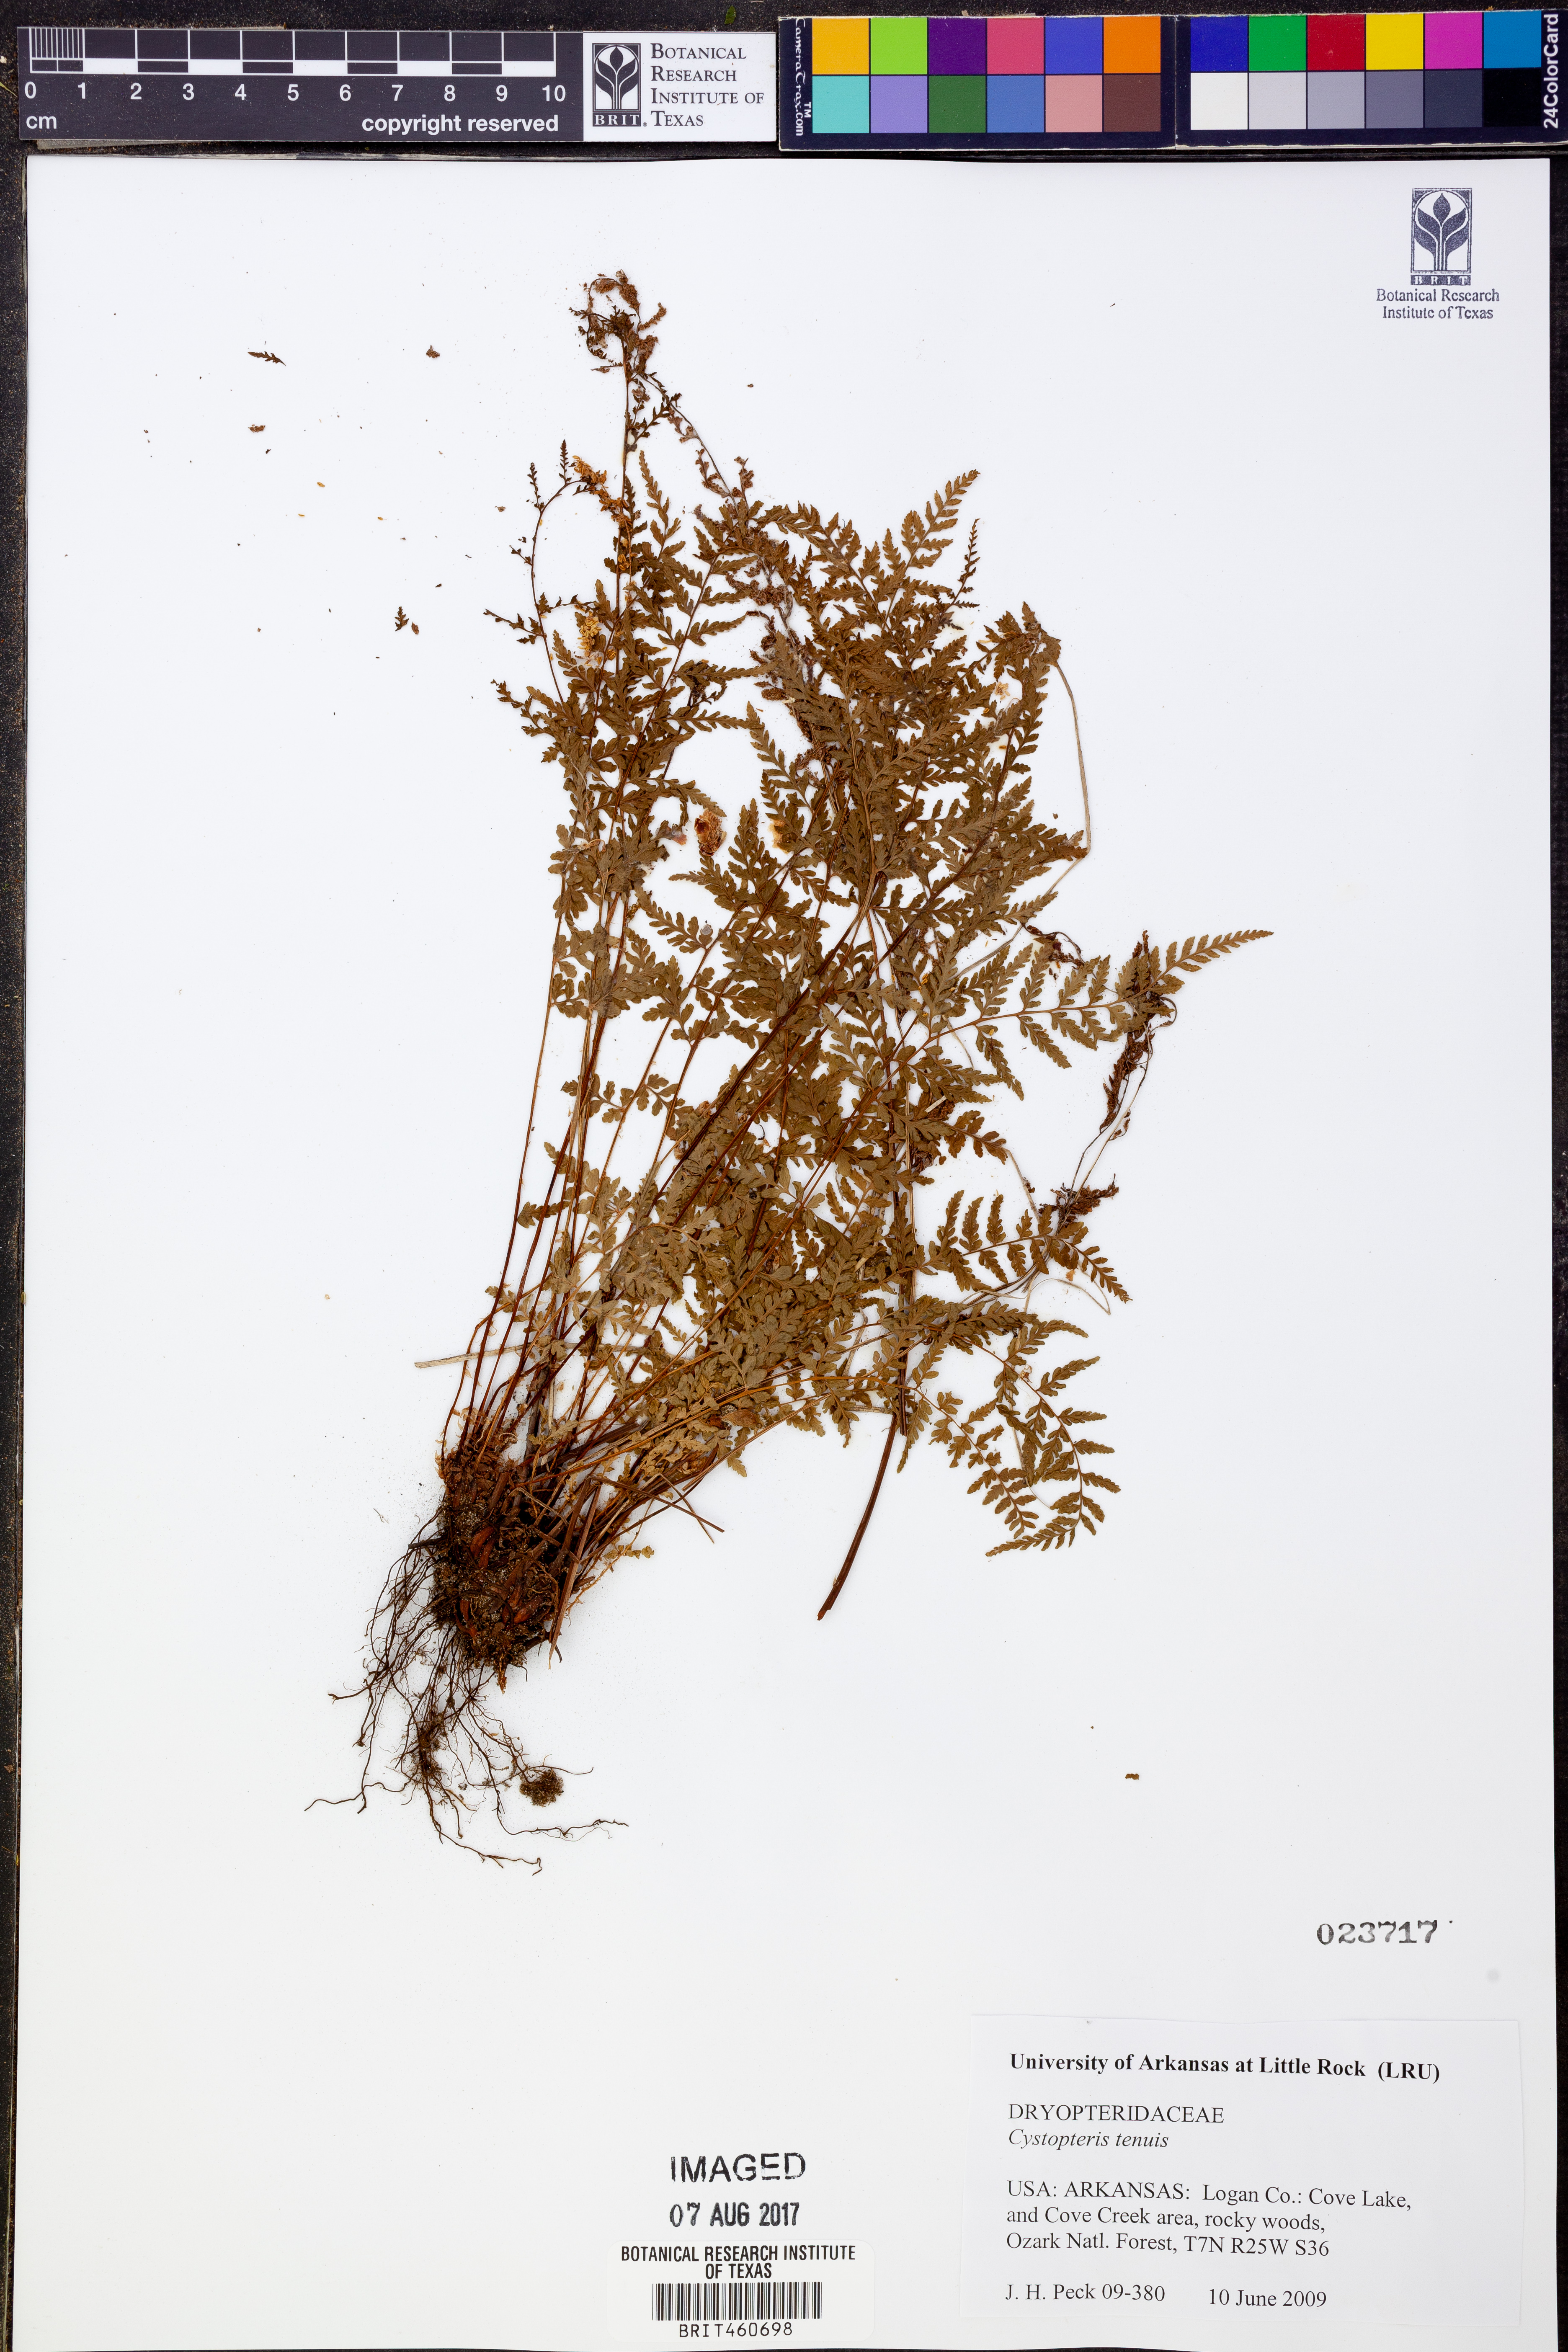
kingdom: Plantae
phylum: Tracheophyta
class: Polypodiopsida
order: Polypodiales
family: Cystopteridaceae
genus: Cystopteris
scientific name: Cystopteris tenuis
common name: Mackay's brittle fern
